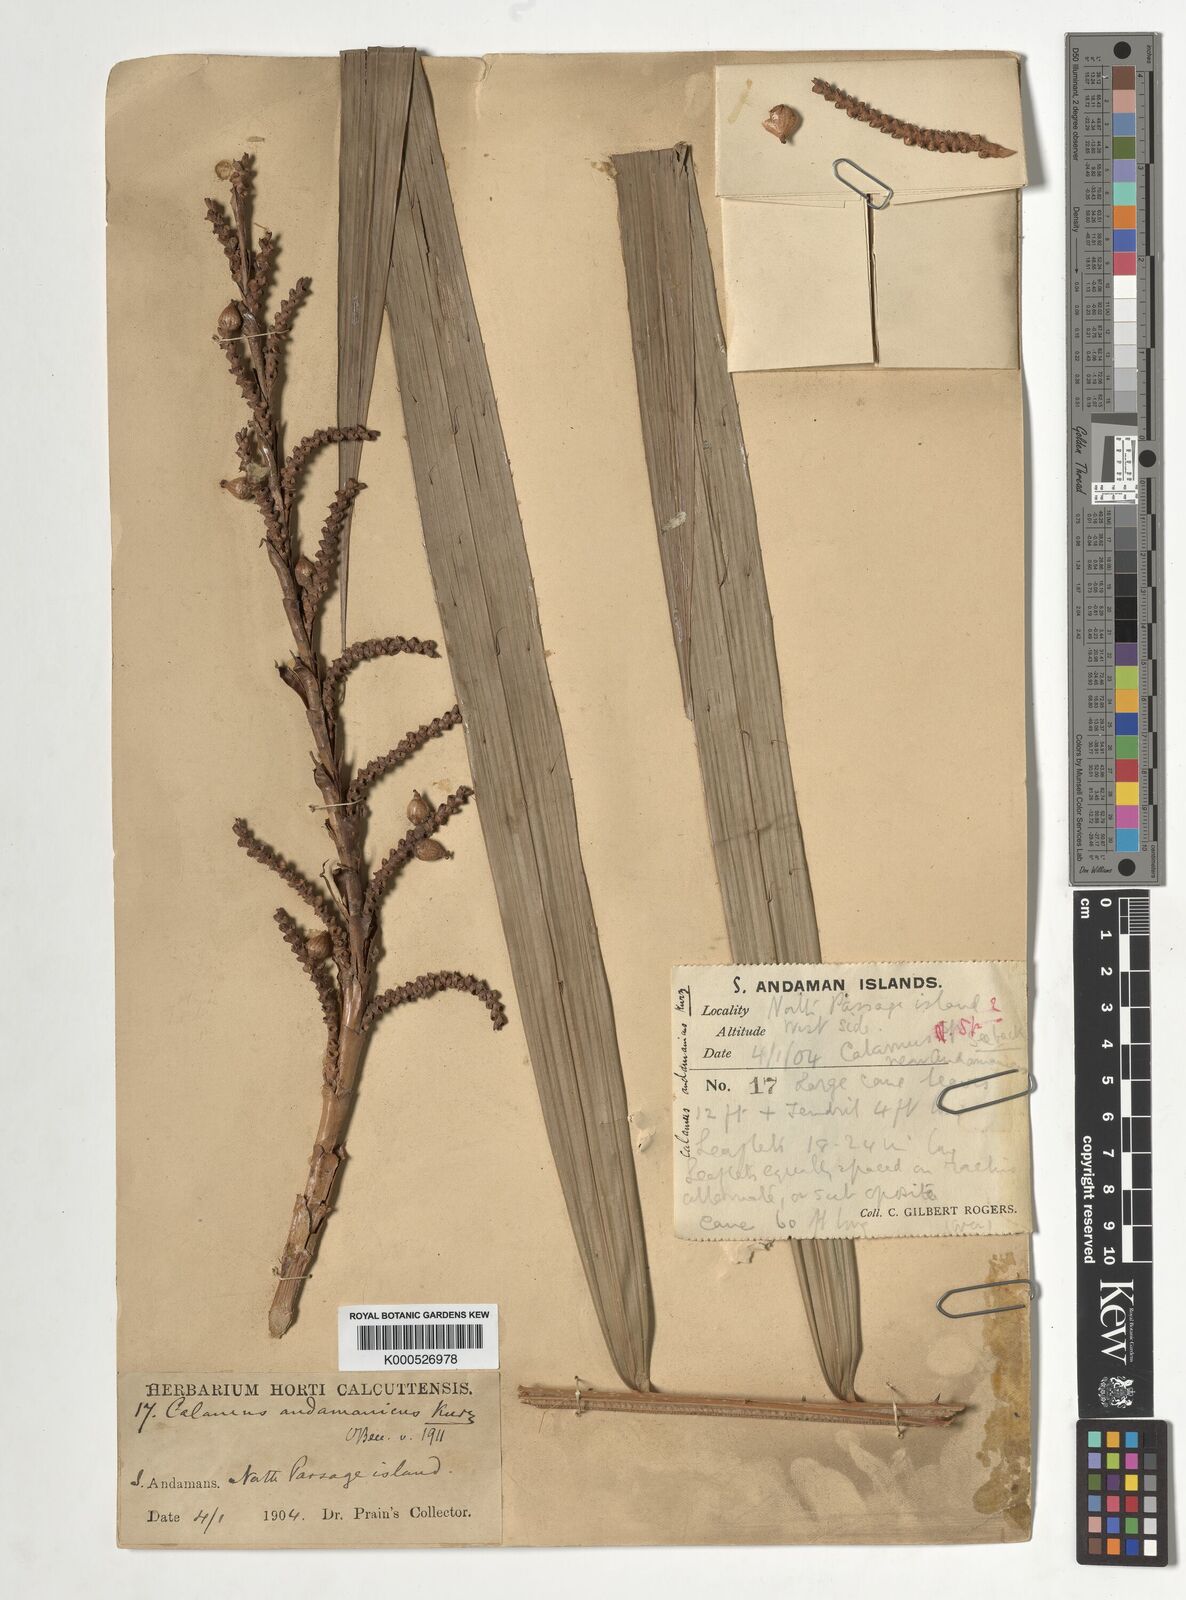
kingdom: Plantae
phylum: Tracheophyta
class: Liliopsida
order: Arecales
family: Arecaceae
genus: Calamus
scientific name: Calamus andamanicus
